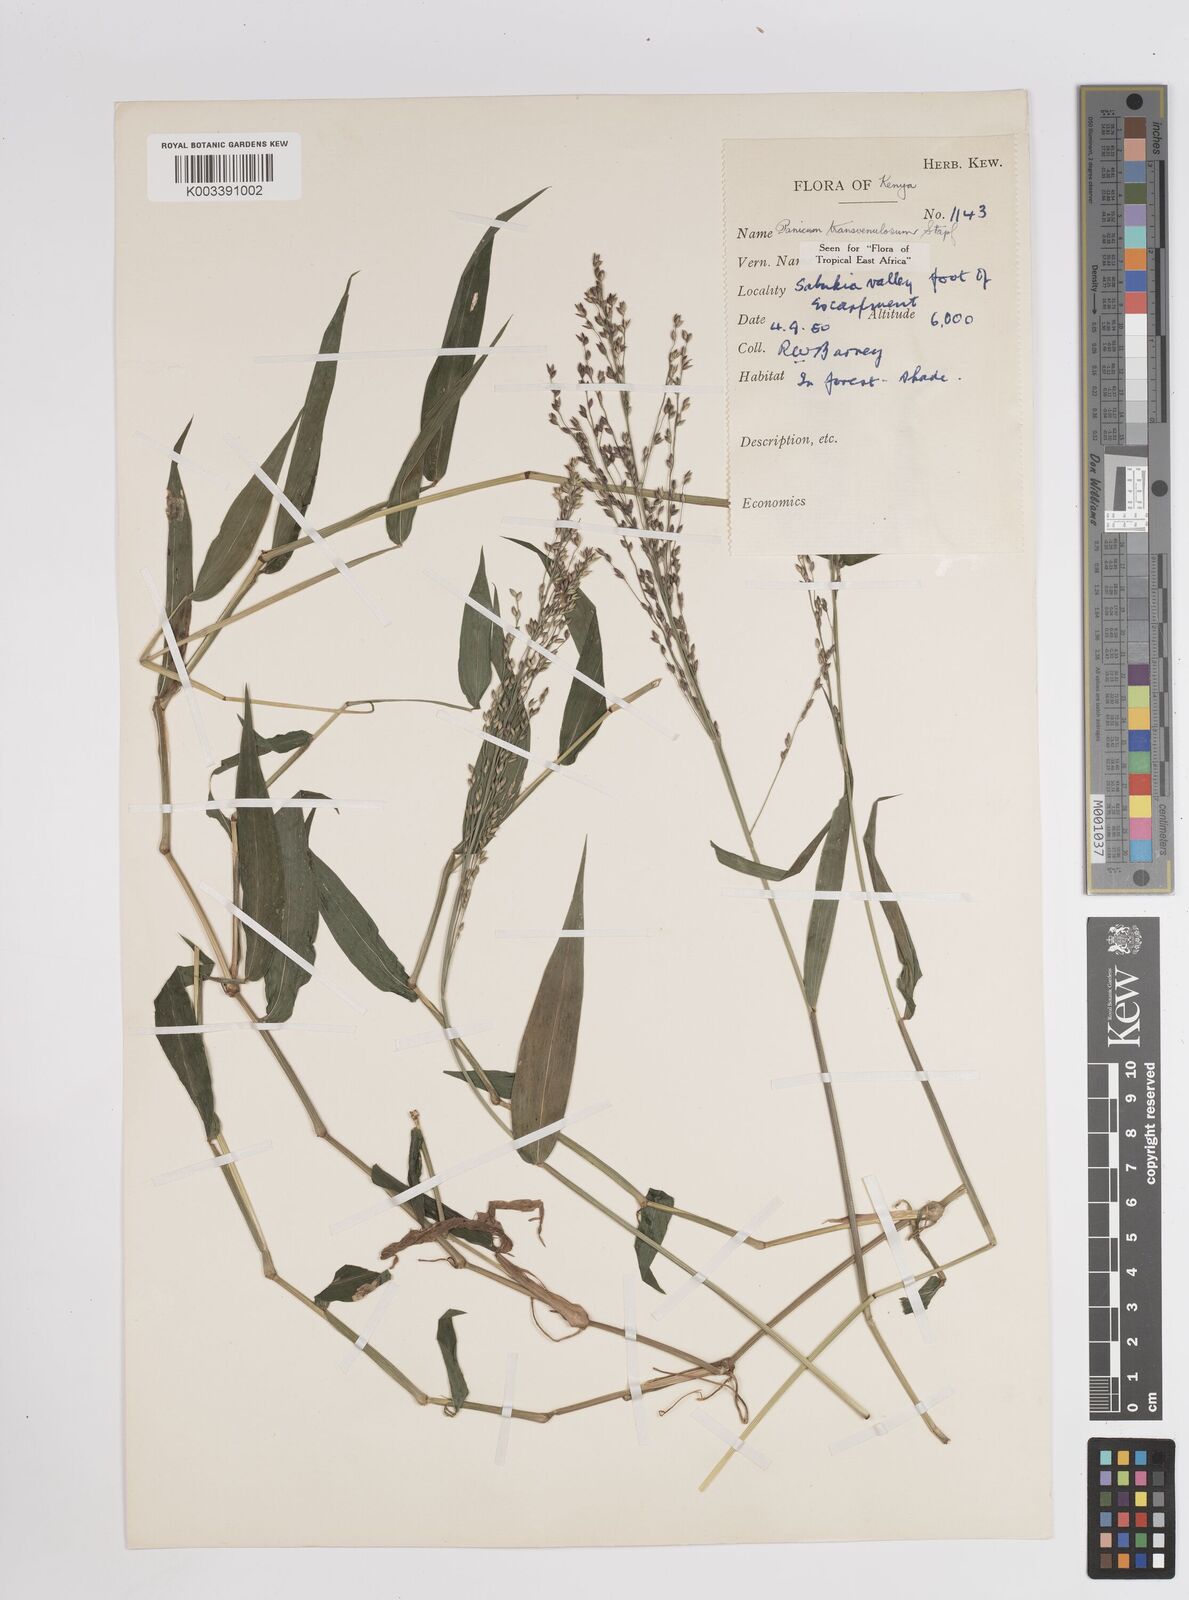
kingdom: Plantae
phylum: Tracheophyta
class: Liliopsida
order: Poales
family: Poaceae
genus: Panicum
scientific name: Panicum monticola
